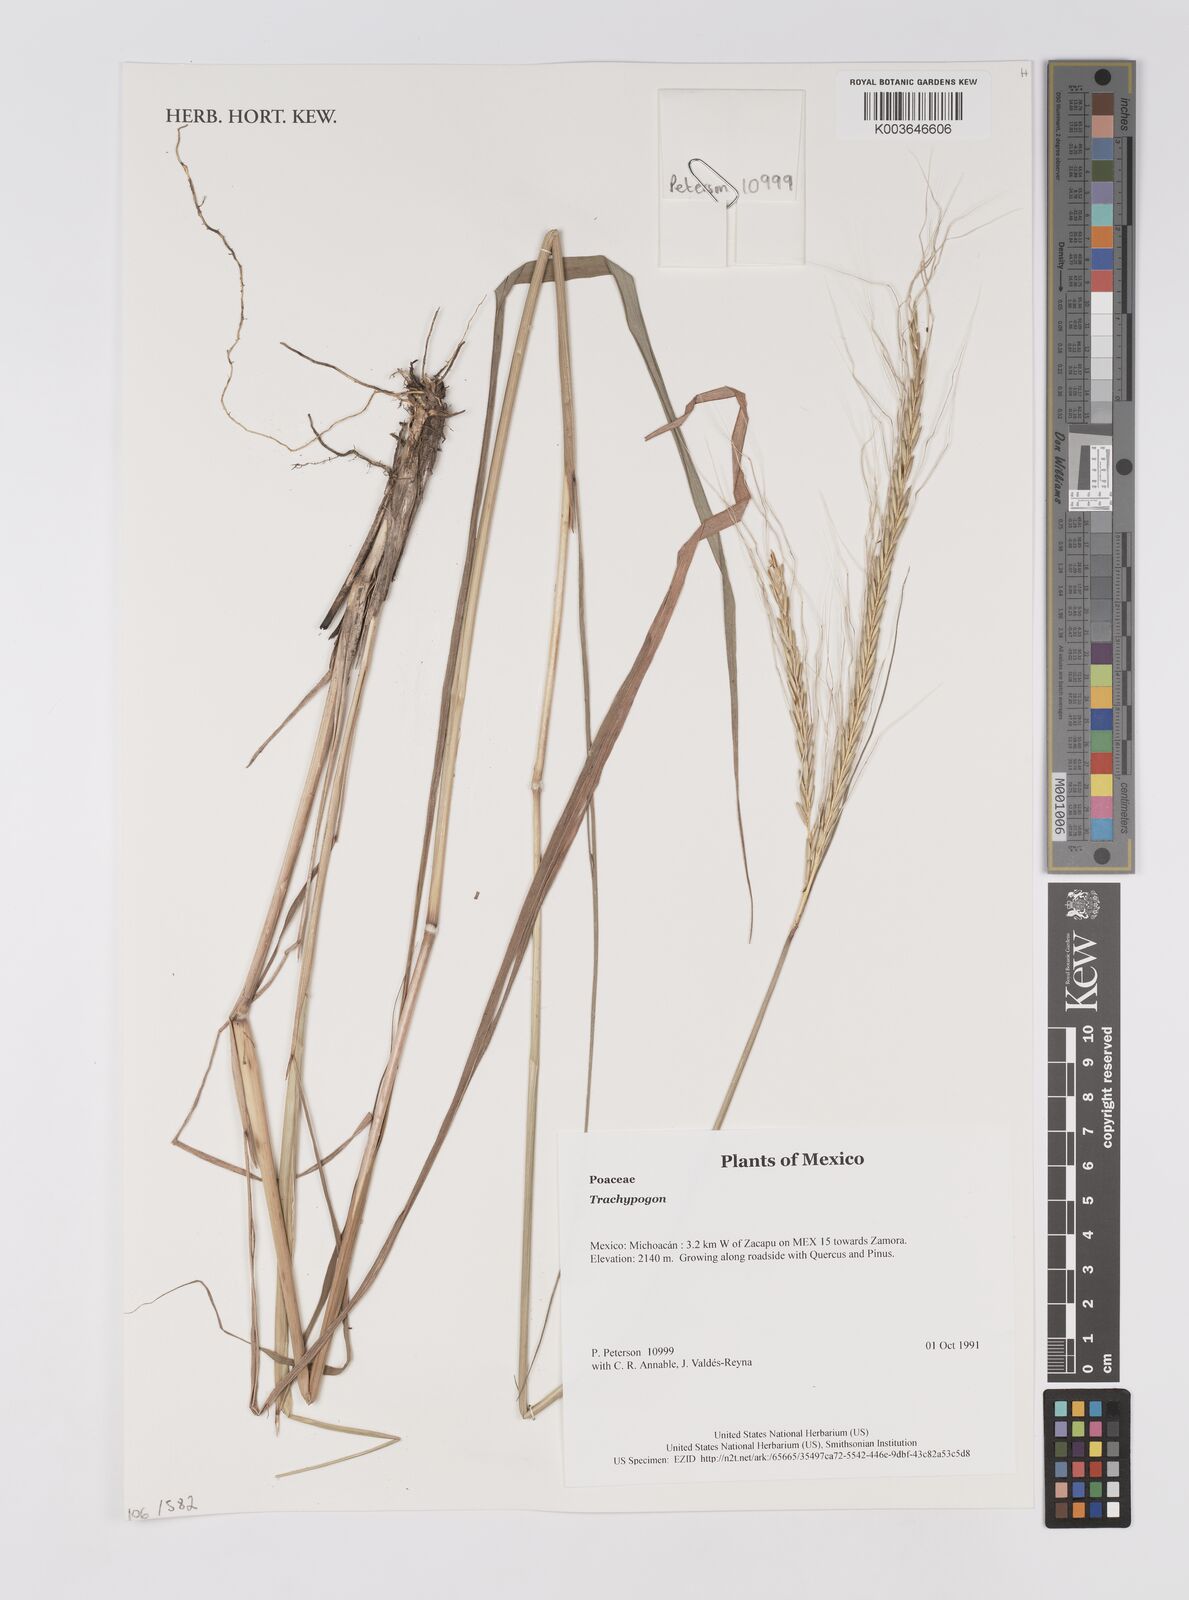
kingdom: Plantae
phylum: Tracheophyta
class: Liliopsida
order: Poales
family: Poaceae
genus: Trachypogon
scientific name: Trachypogon
